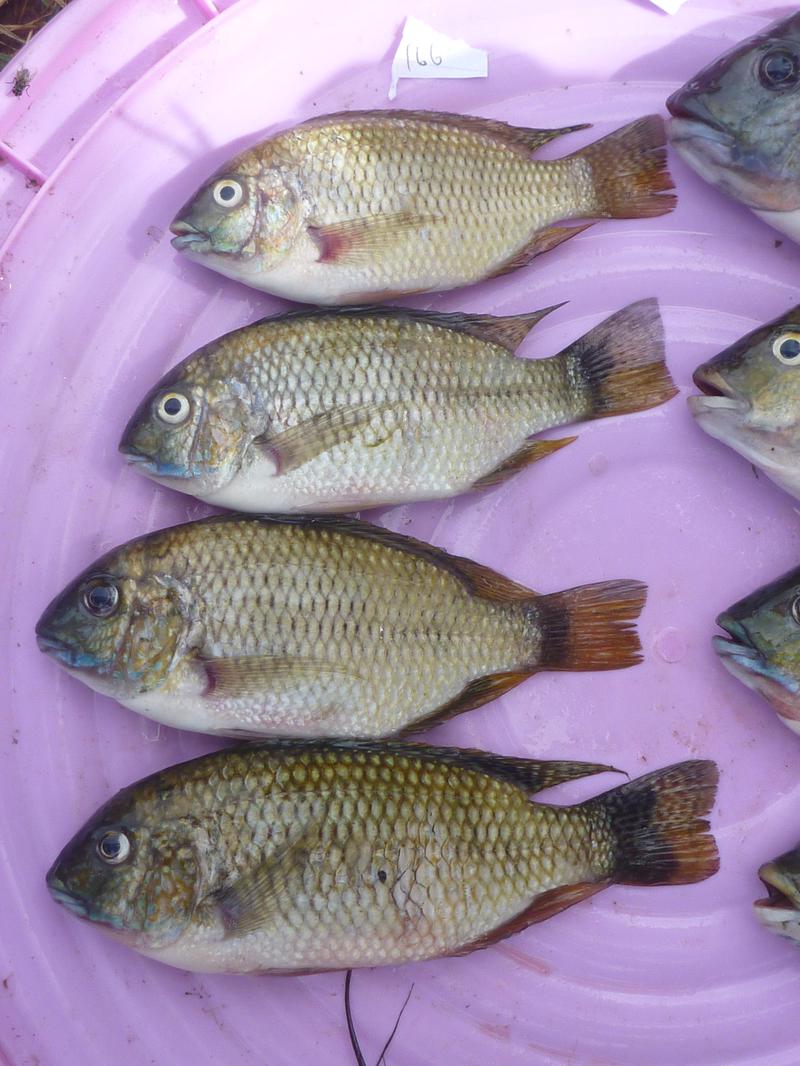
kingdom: Animalia
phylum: Chordata
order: Perciformes
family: Cichlidae
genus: Coptodon
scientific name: Coptodon rendalli
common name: Redbreast tilapia
